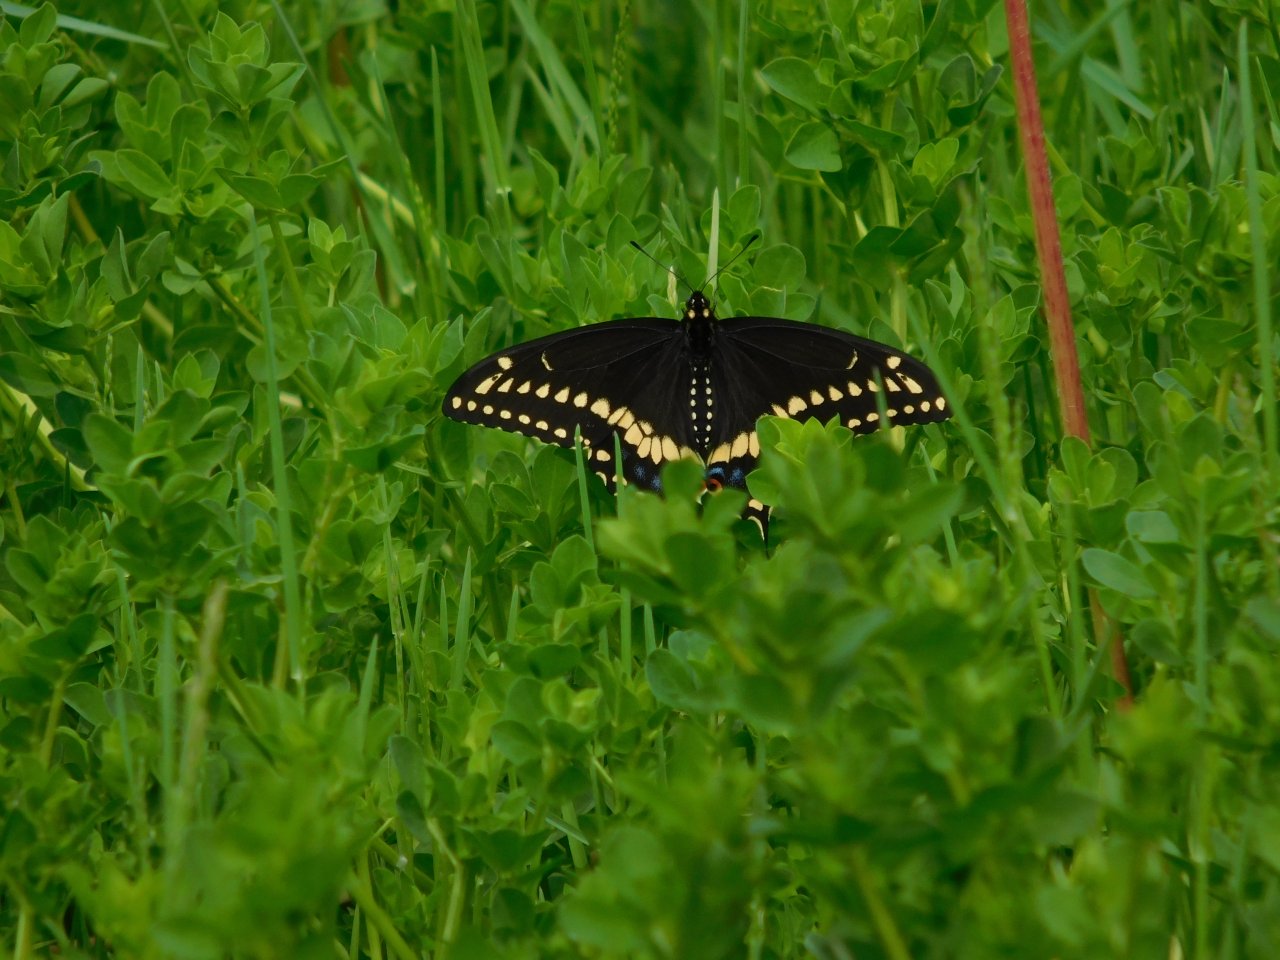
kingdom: Animalia
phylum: Arthropoda
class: Insecta
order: Lepidoptera
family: Papilionidae
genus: Papilio
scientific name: Papilio polyxenes
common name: Black Swallowtail
